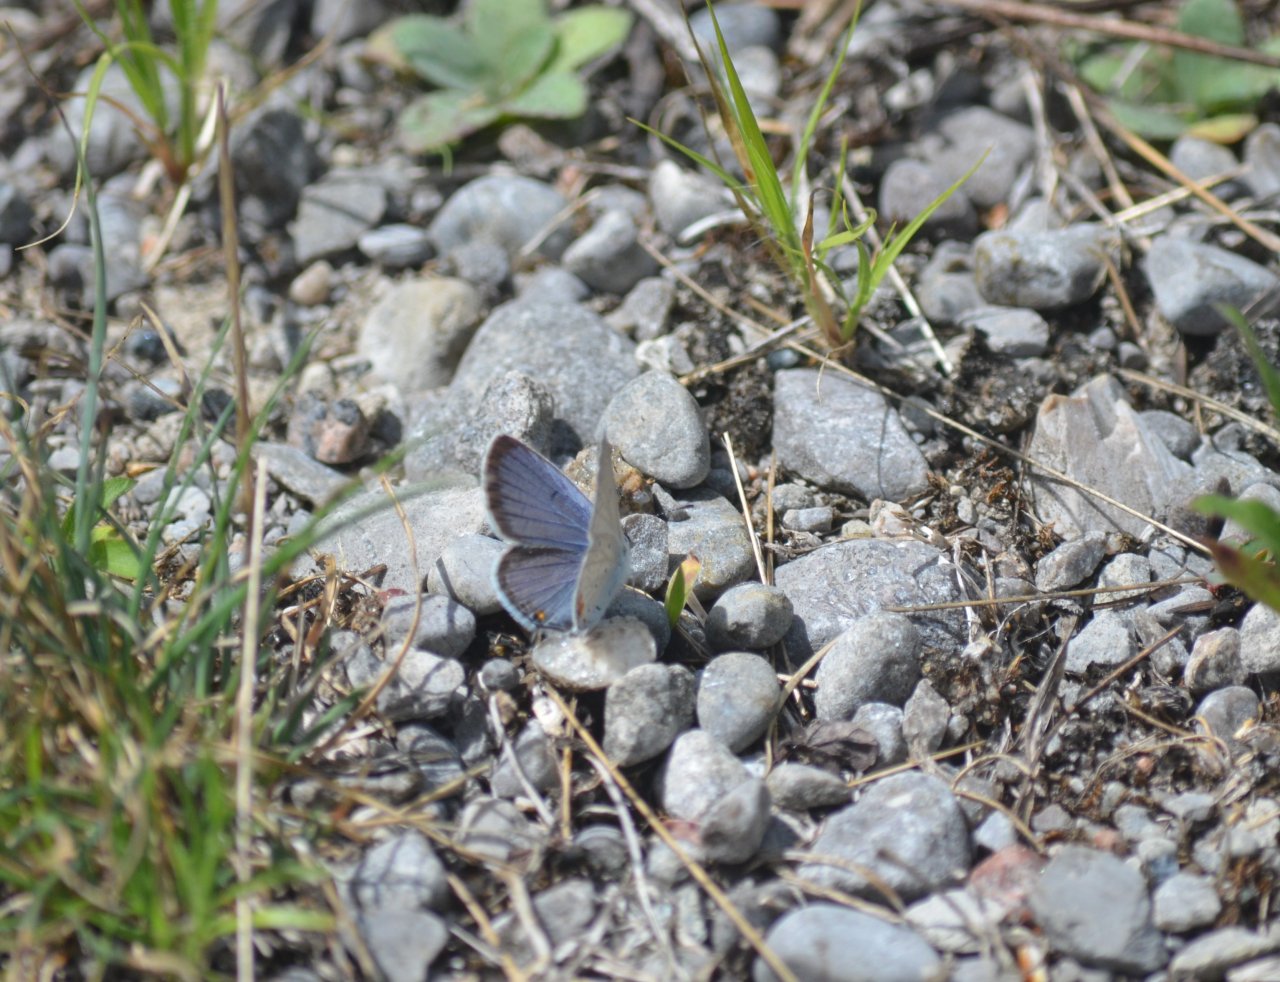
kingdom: Animalia
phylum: Arthropoda
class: Insecta
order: Lepidoptera
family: Lycaenidae
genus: Elkalyce
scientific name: Elkalyce comyntas
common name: Eastern Tailed-Blue
